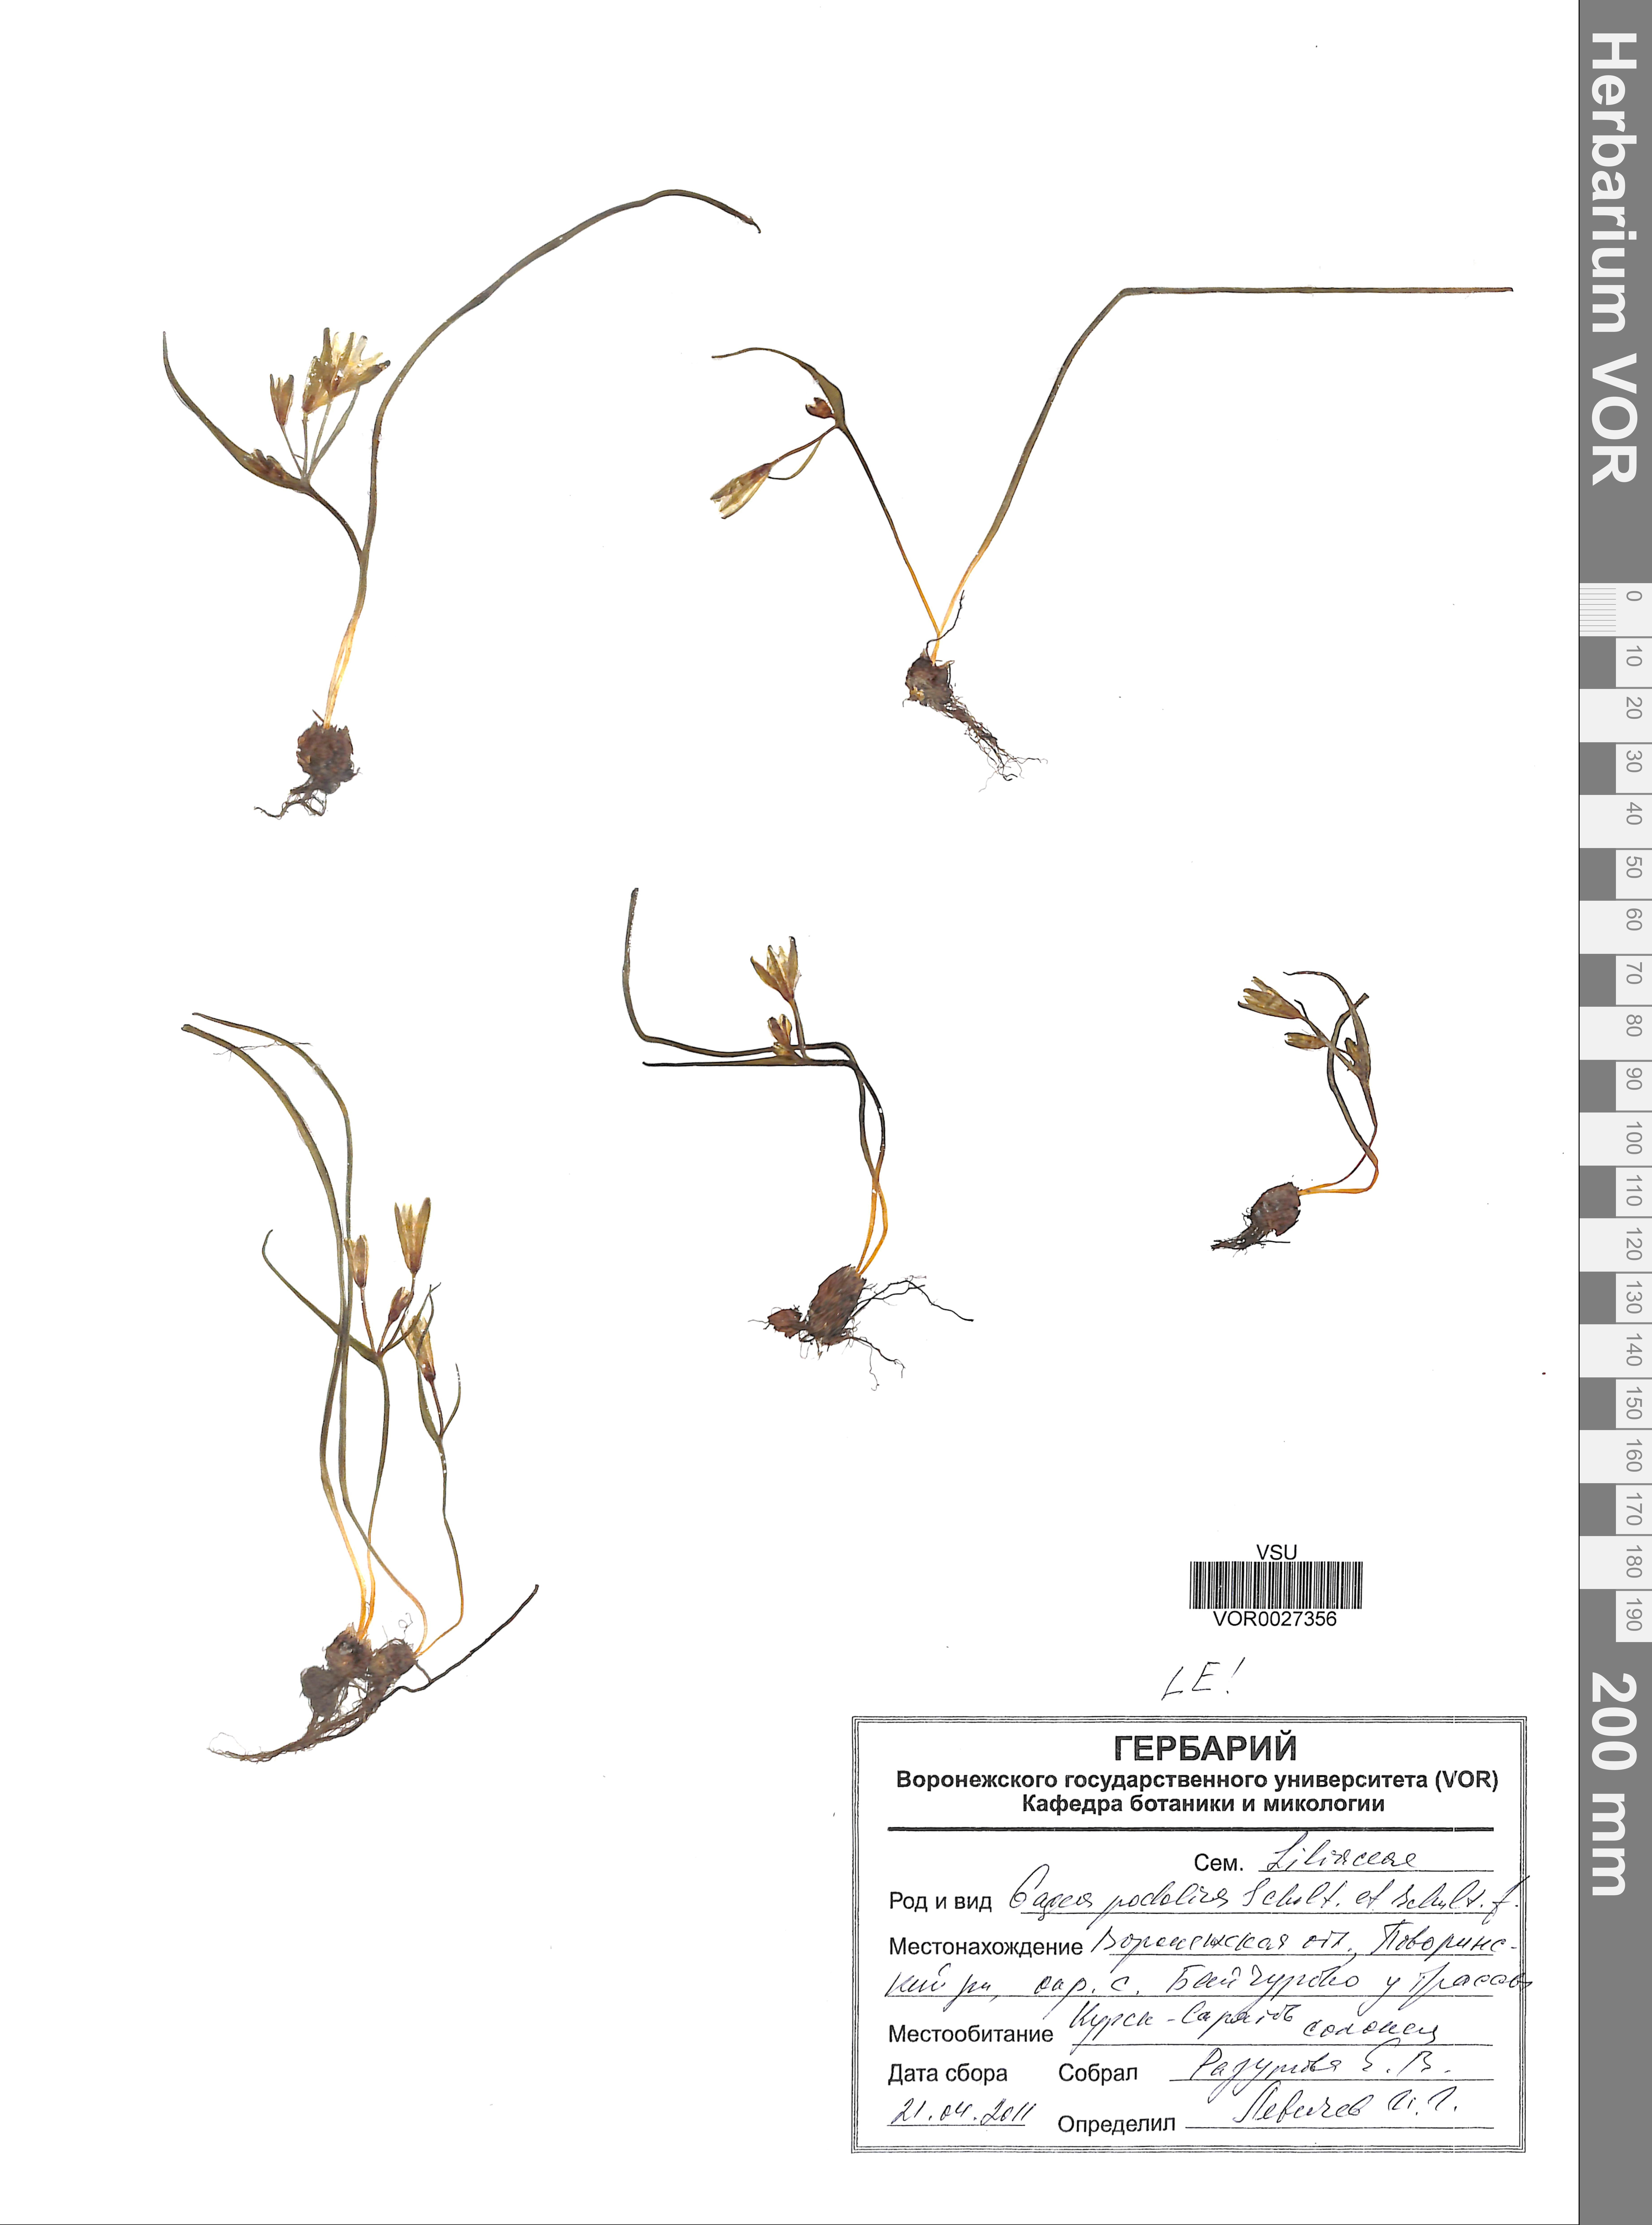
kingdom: Plantae
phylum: Tracheophyta
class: Liliopsida
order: Liliales
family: Liliaceae
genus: Gagea
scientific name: Gagea podolica
